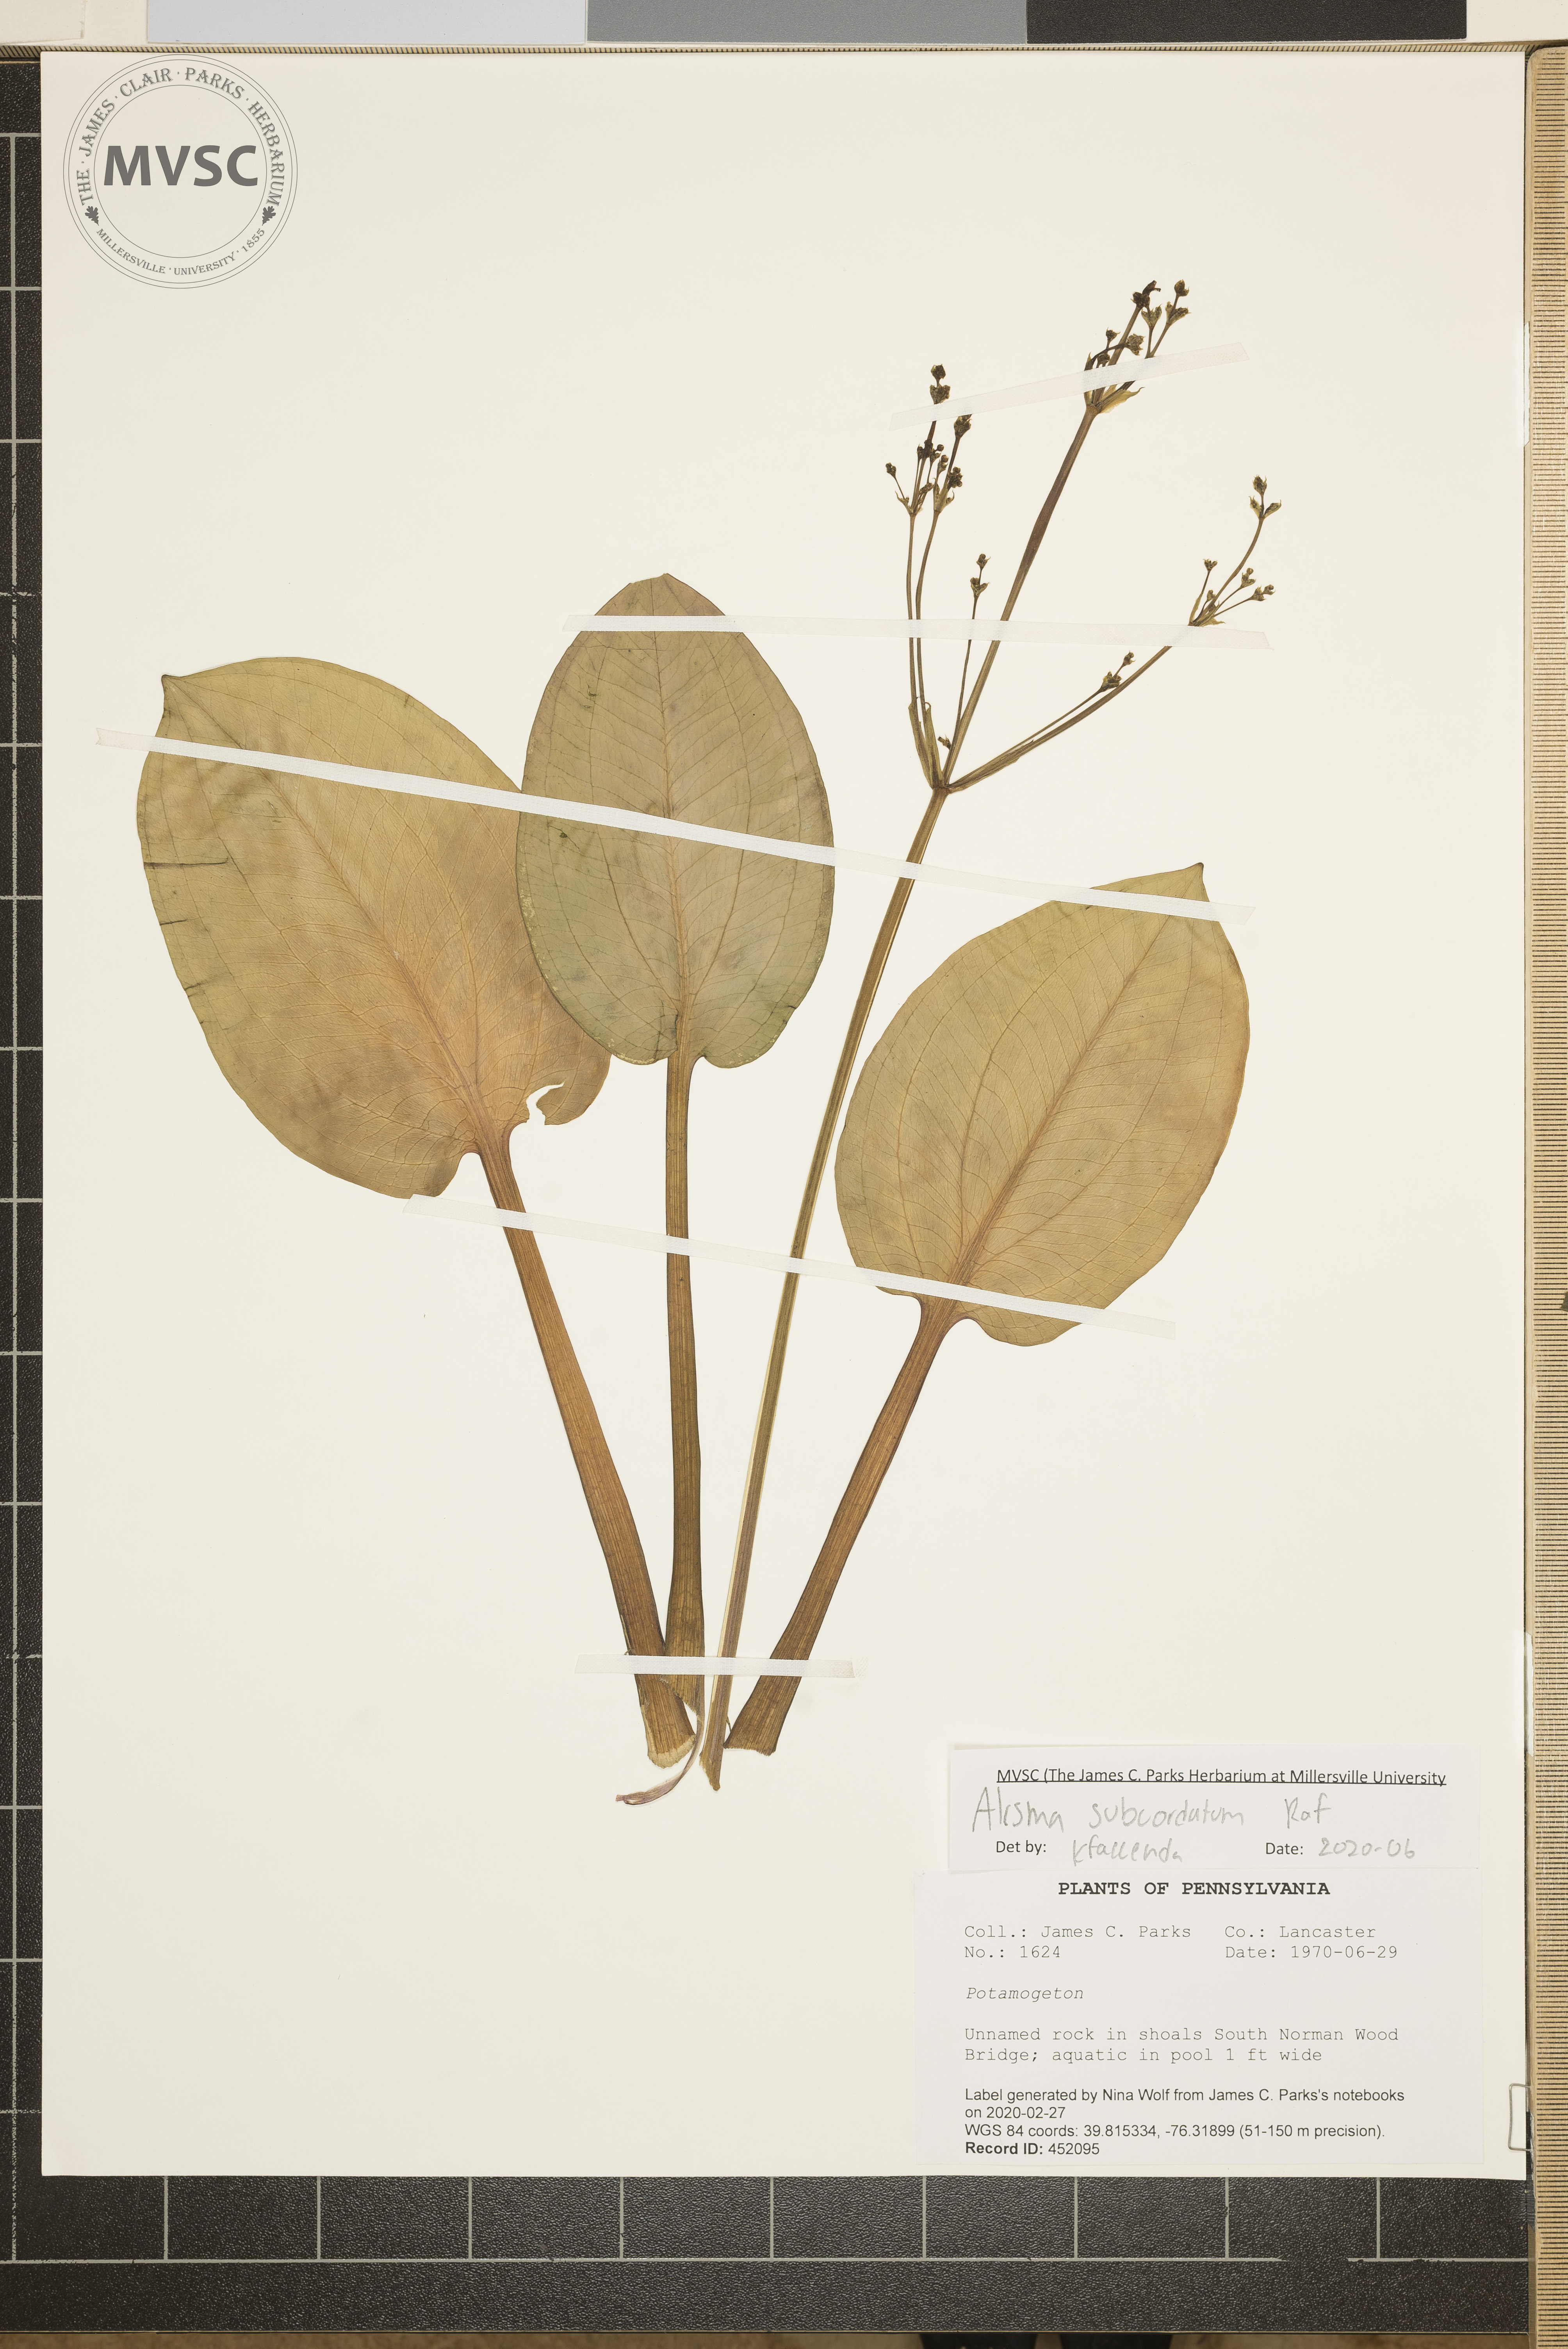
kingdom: Plantae
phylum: Tracheophyta
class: Liliopsida
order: Alismatales
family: Alismataceae
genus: Alisma
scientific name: Alisma subcordatum
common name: Southern water-plantain
